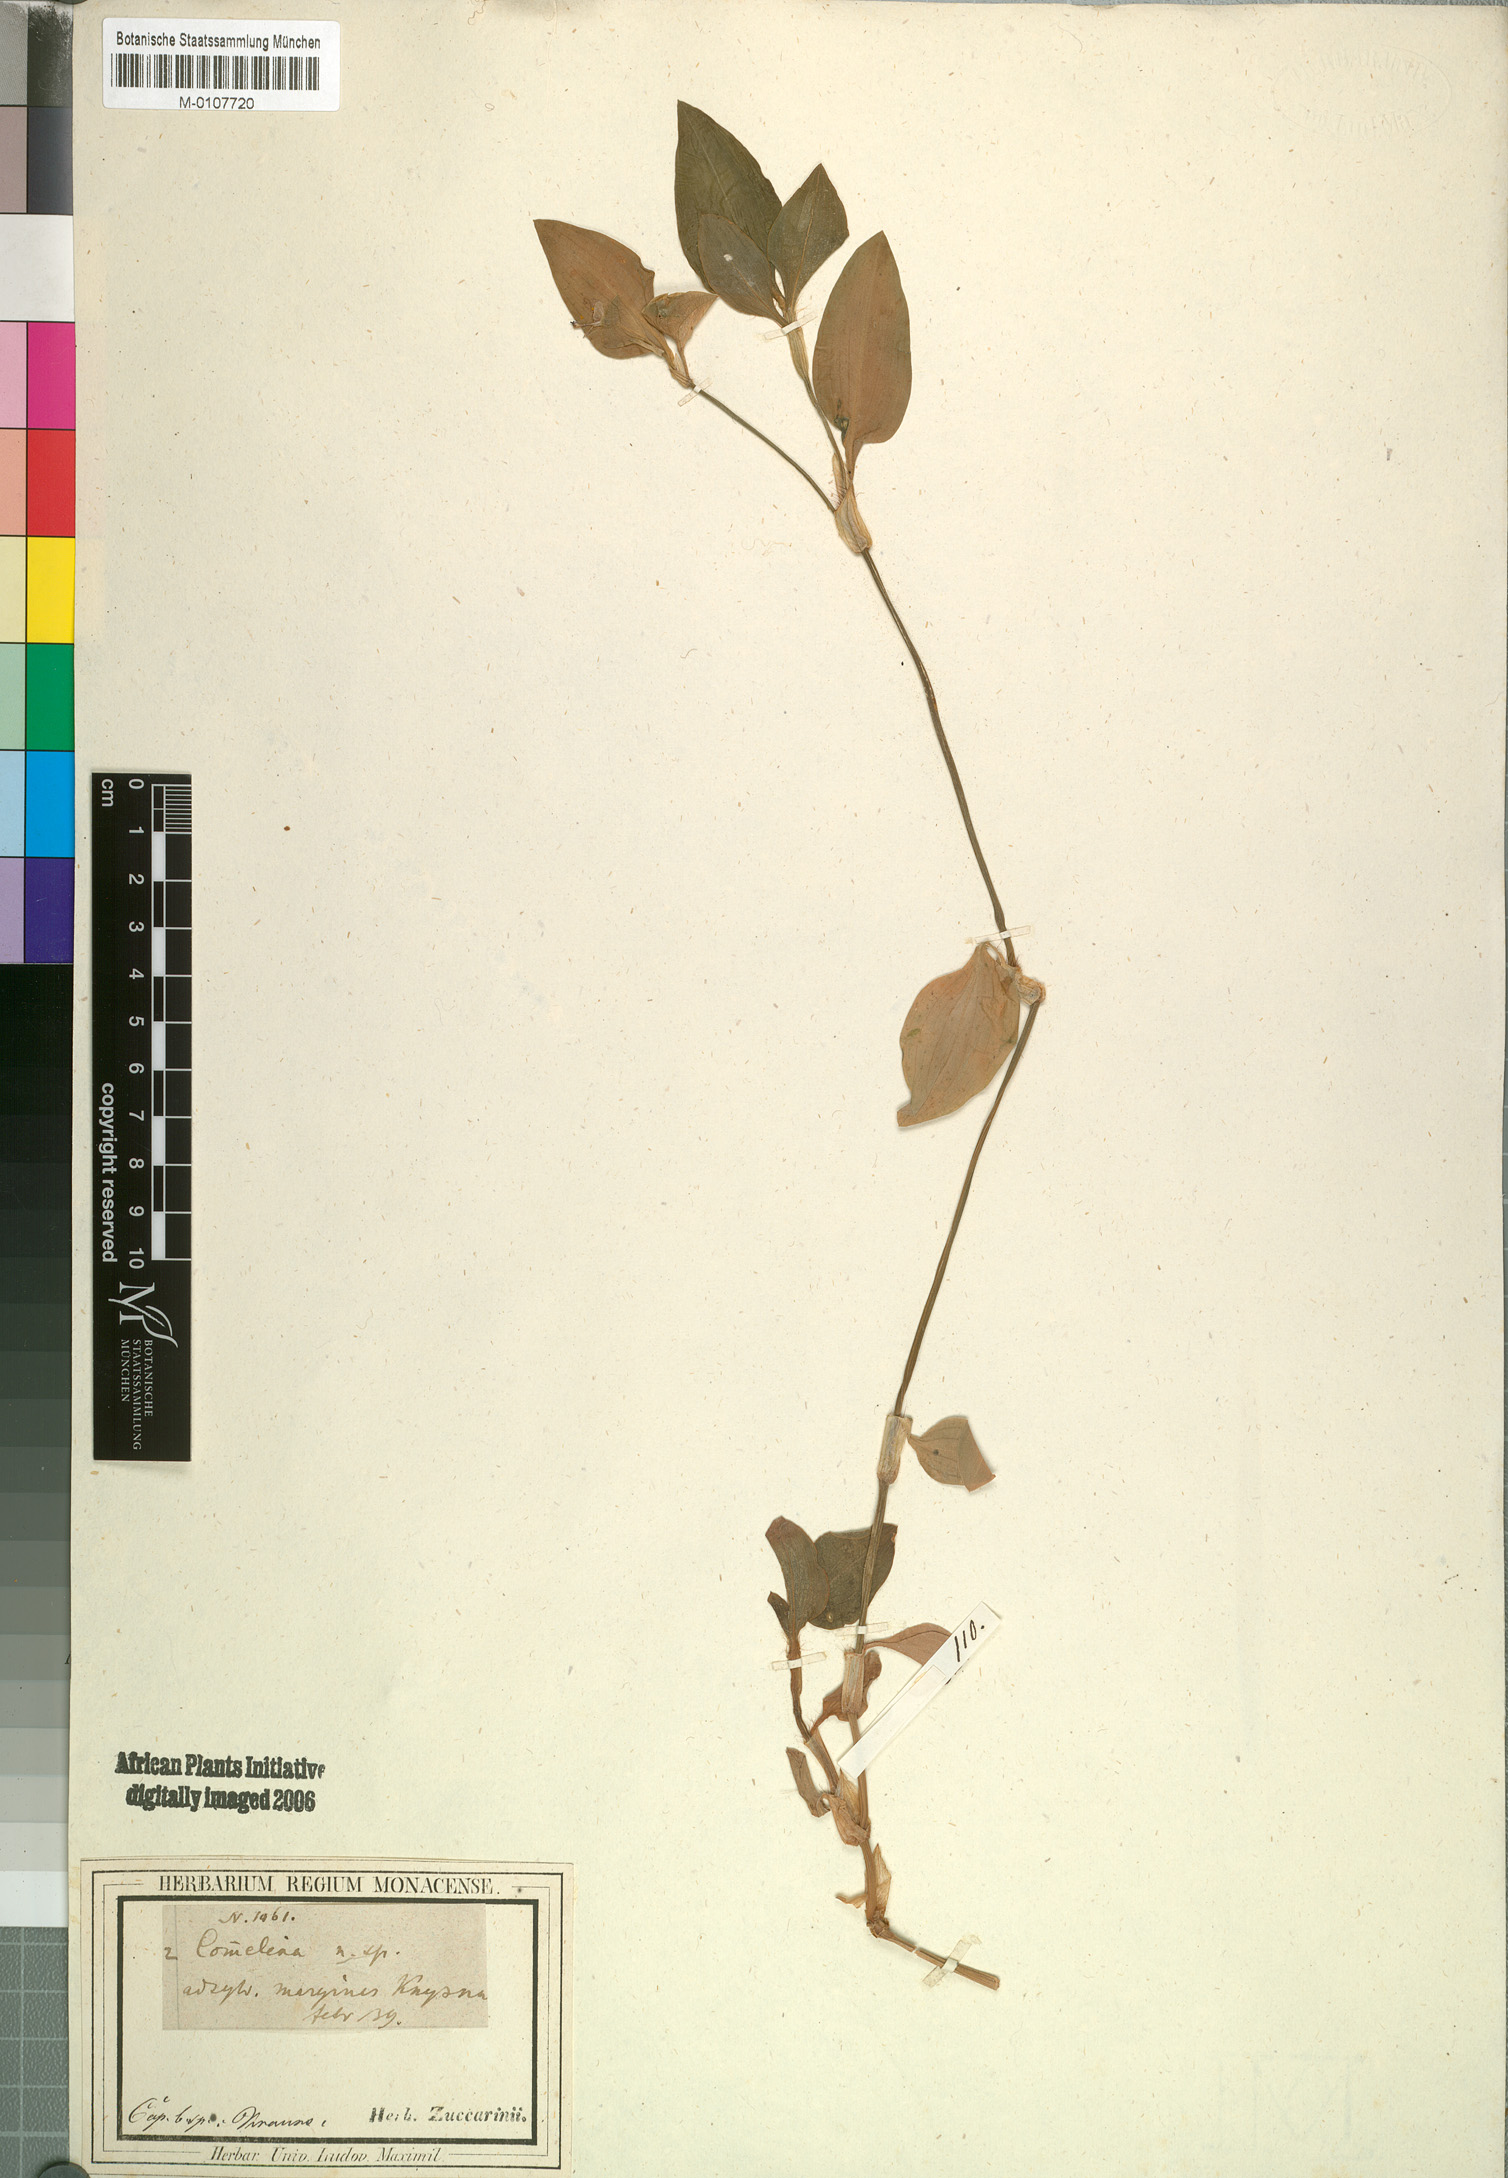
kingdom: Plantae
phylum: Tracheophyta
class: Liliopsida
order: Commelinales
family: Commelinaceae
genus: Commelina
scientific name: Commelina benghalensis
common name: Jio
